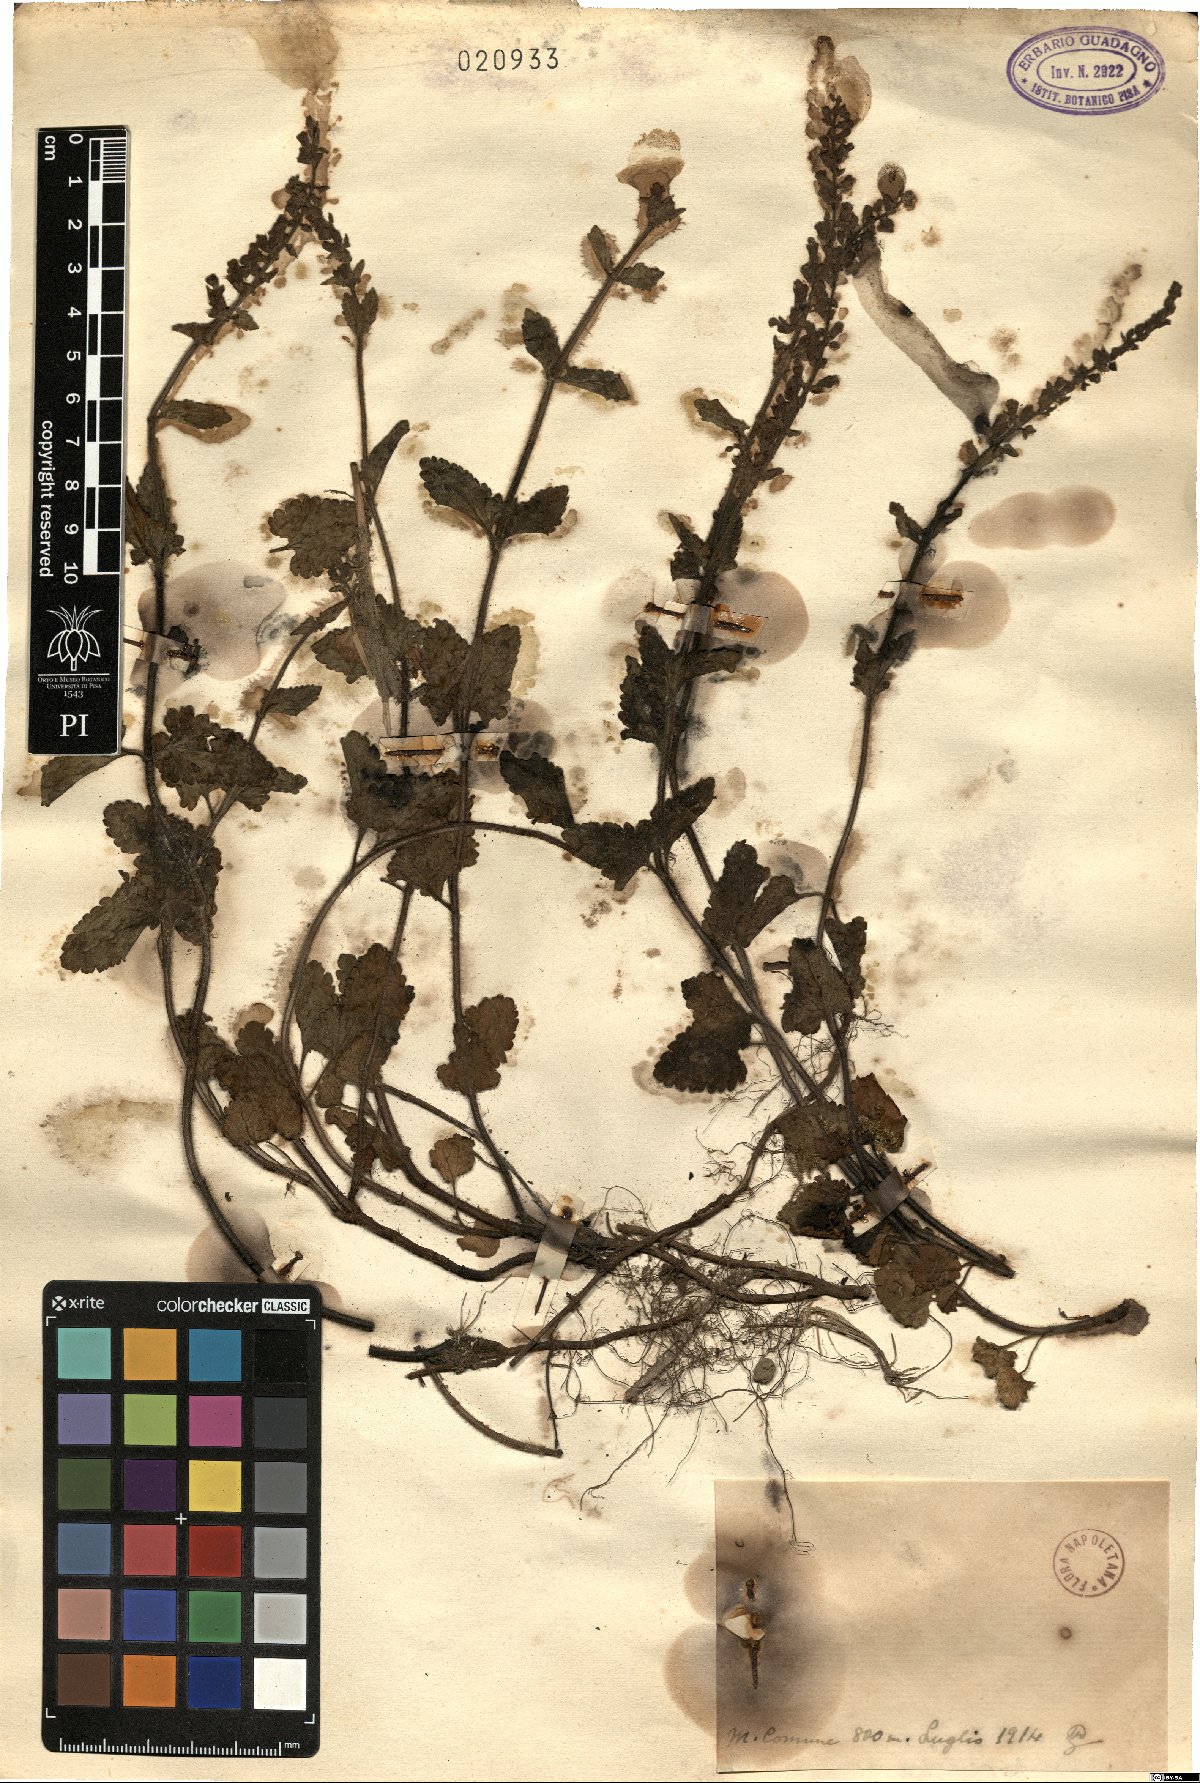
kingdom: Plantae
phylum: Tracheophyta
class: Magnoliopsida
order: Lamiales
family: Lamiaceae
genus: Teucrium
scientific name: Teucrium
